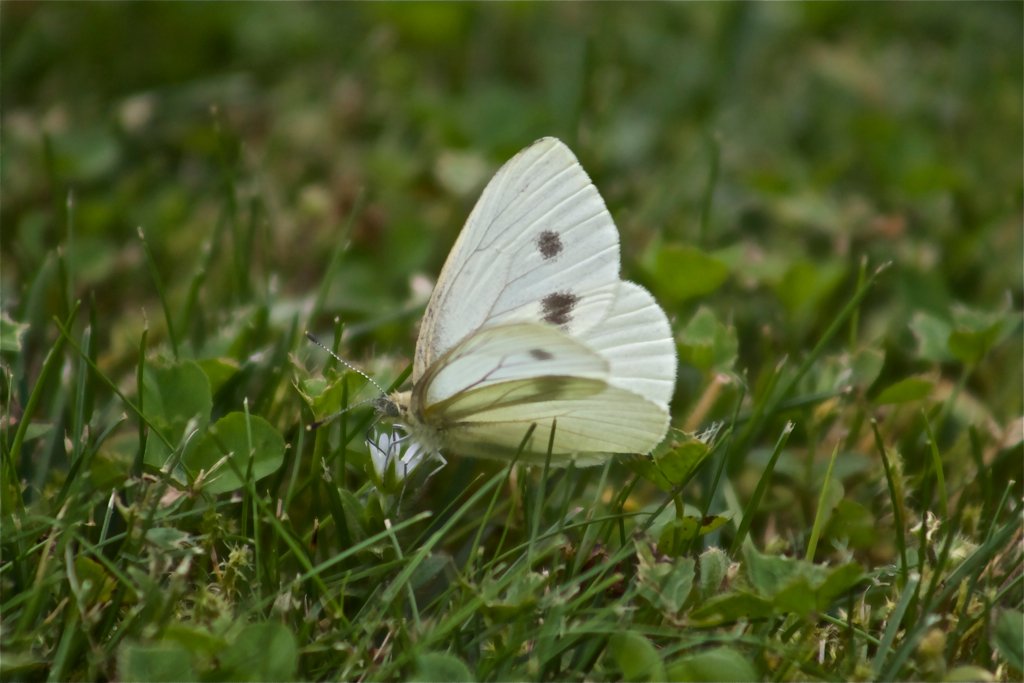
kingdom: Animalia
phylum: Arthropoda
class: Insecta
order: Lepidoptera
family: Pieridae
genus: Pieris
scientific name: Pieris rapae
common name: Cabbage White
